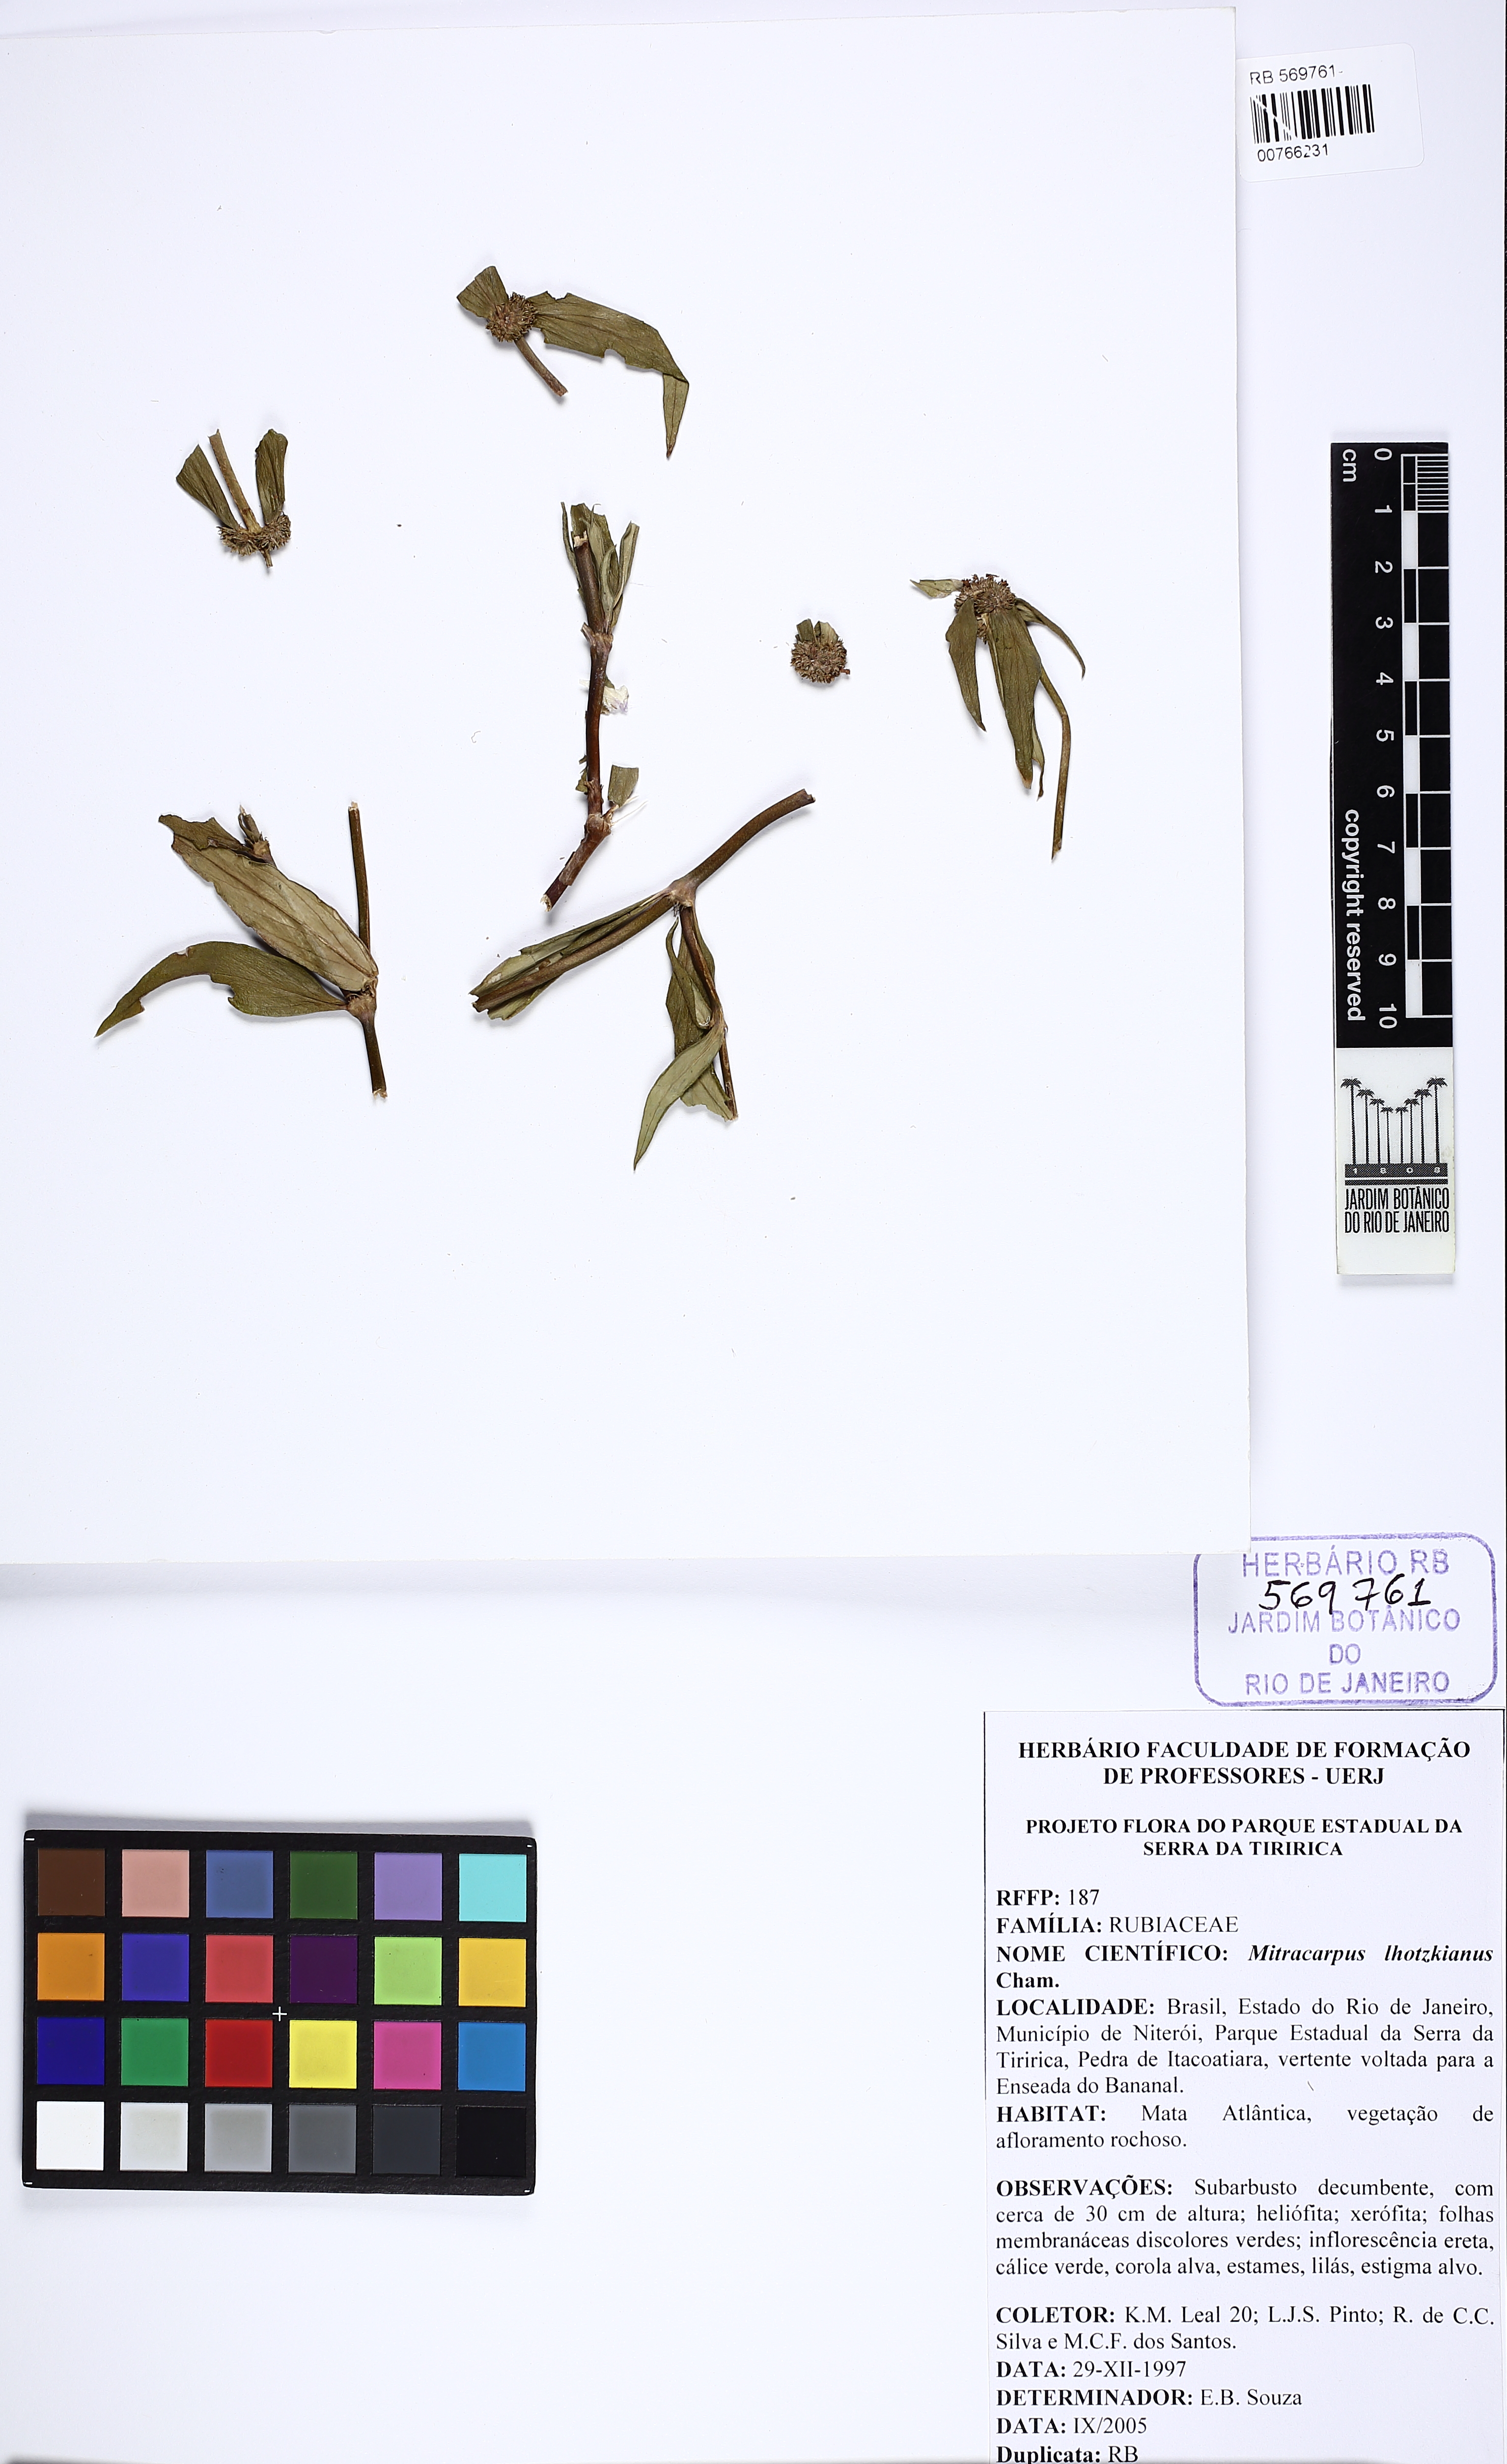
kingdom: Plantae
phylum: Tracheophyta
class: Magnoliopsida
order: Gentianales
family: Rubiaceae
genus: Mitracarpus
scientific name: Mitracarpus lhotzkyanus
